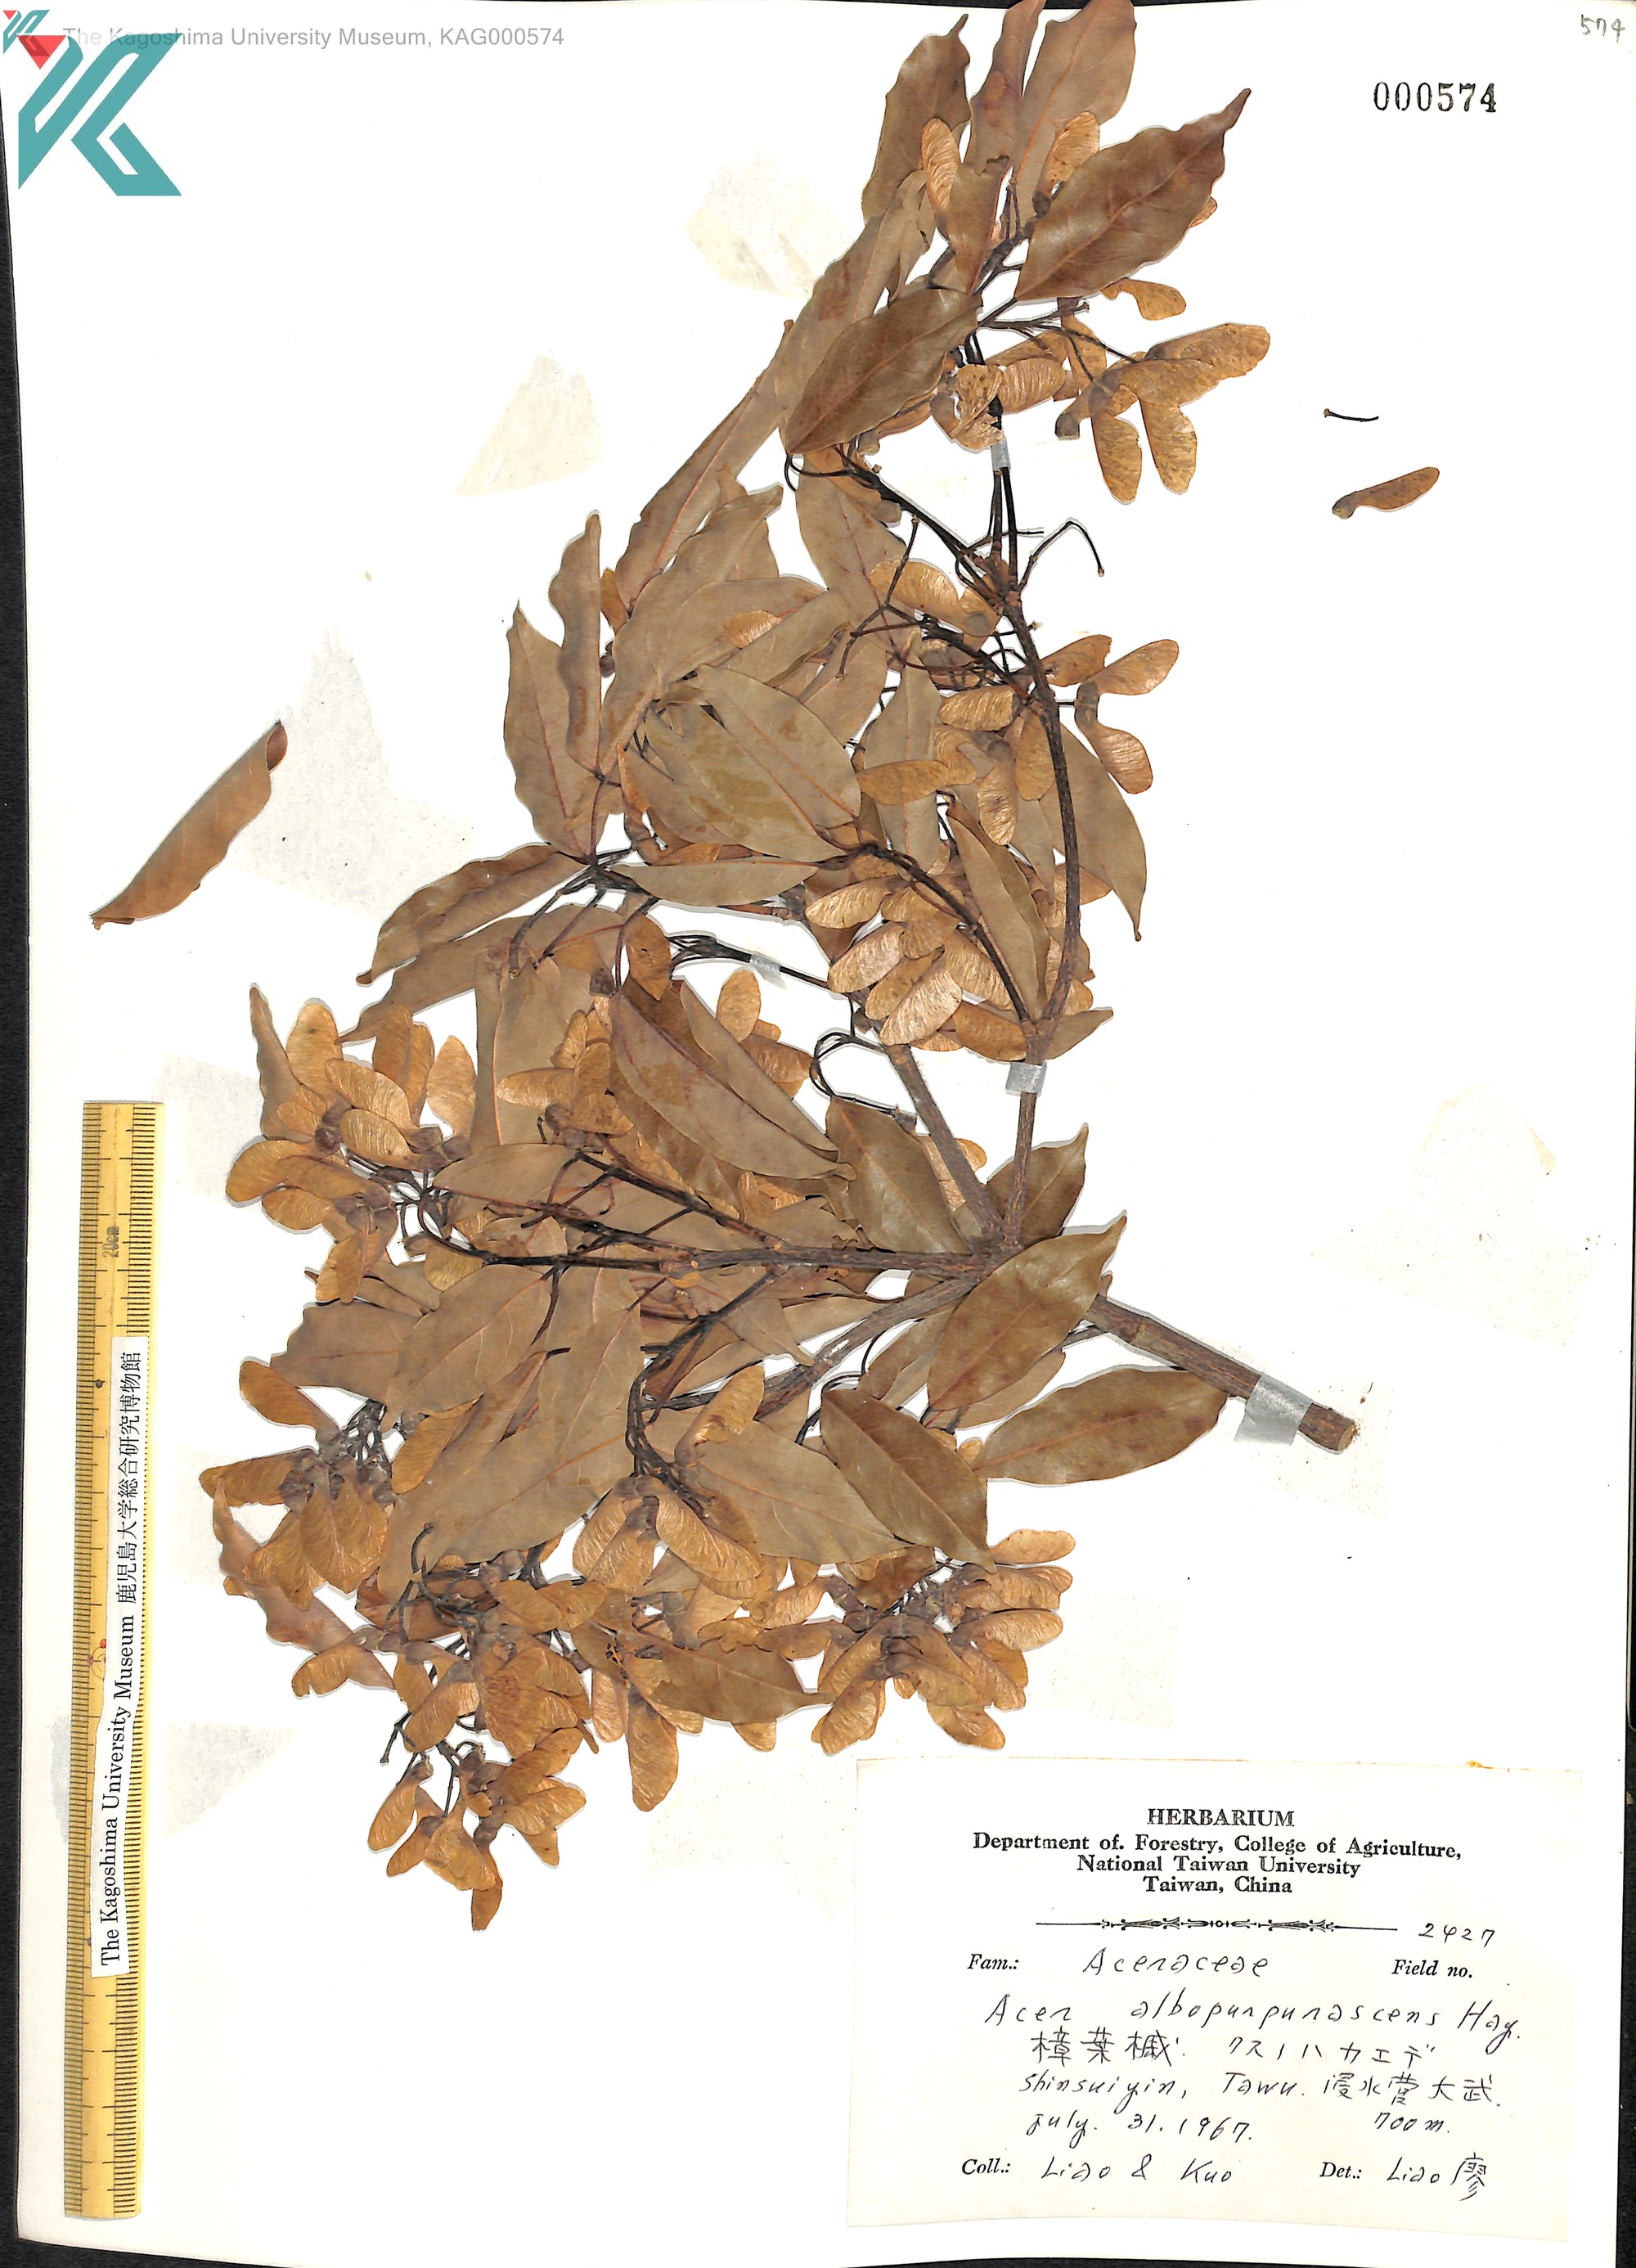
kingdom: Plantae
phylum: Tracheophyta
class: Magnoliopsida
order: Sapindales
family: Sapindaceae
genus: Acer
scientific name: Acer oblongum
